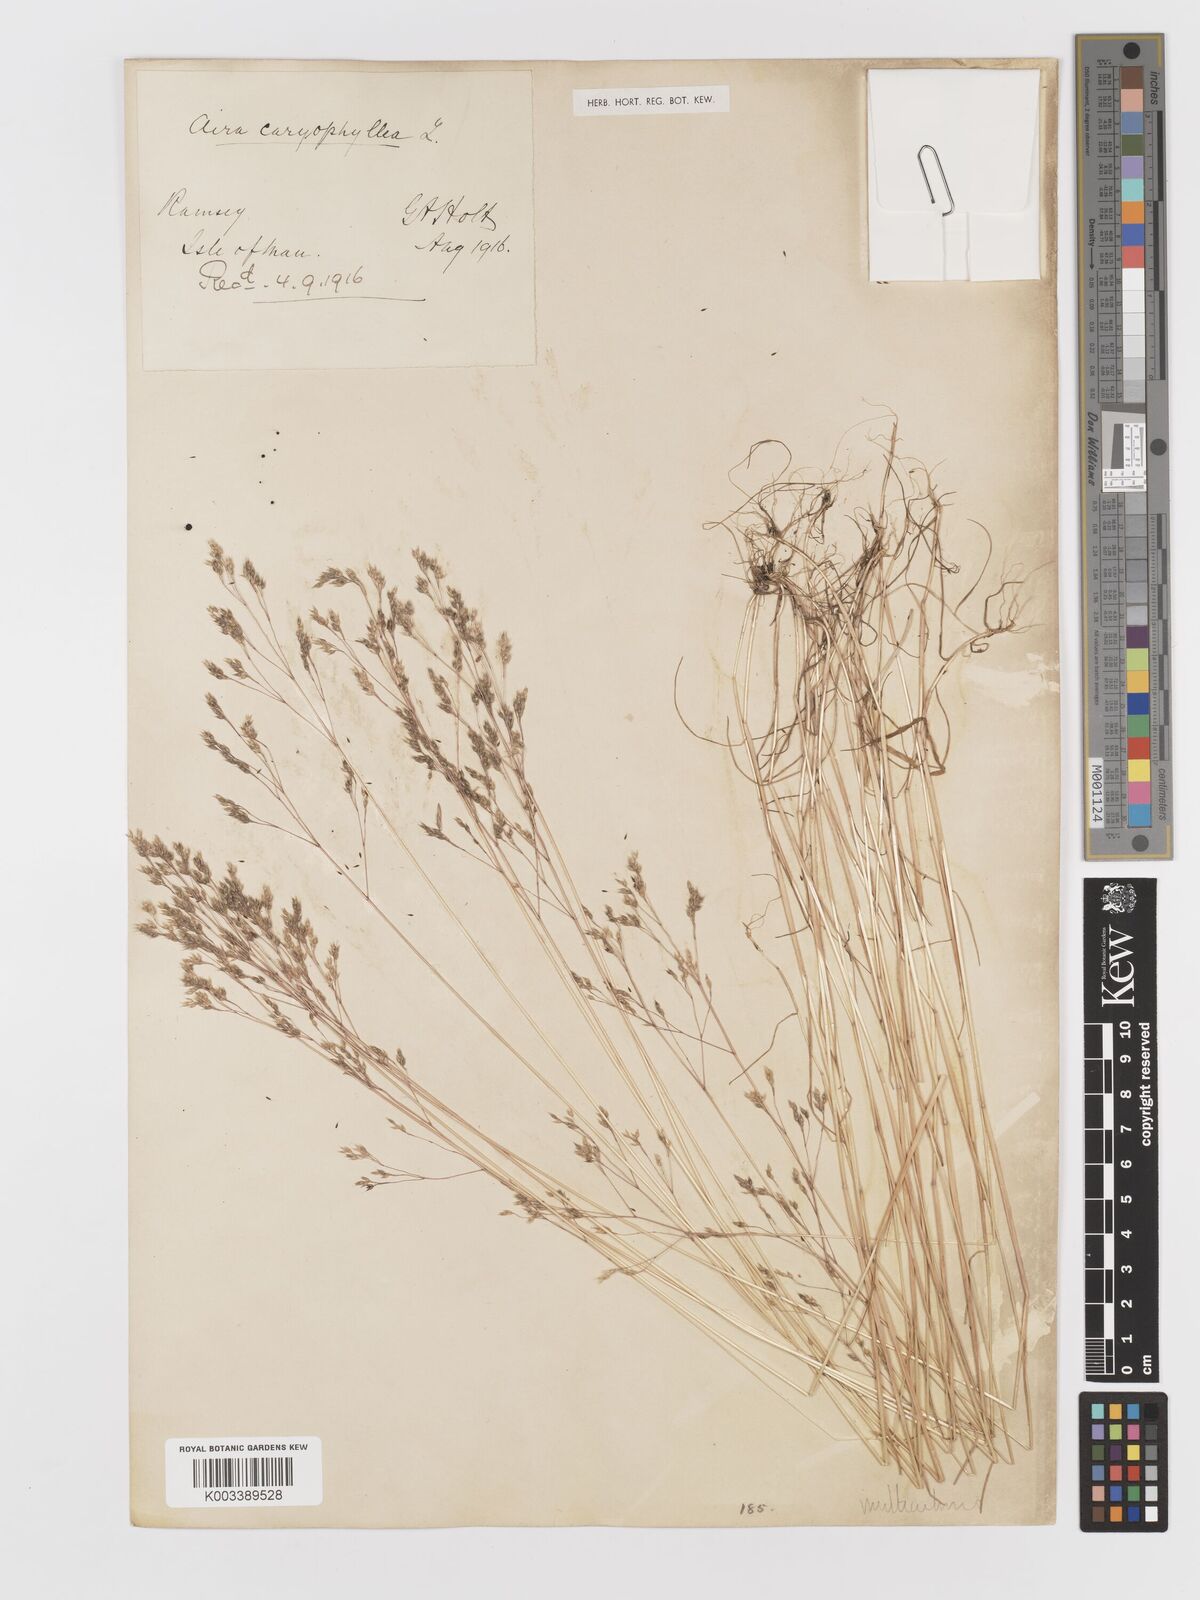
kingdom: Plantae
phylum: Tracheophyta
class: Liliopsida
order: Poales
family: Poaceae
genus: Aira
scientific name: Aira caryophyllea
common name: Silver hairgrass
